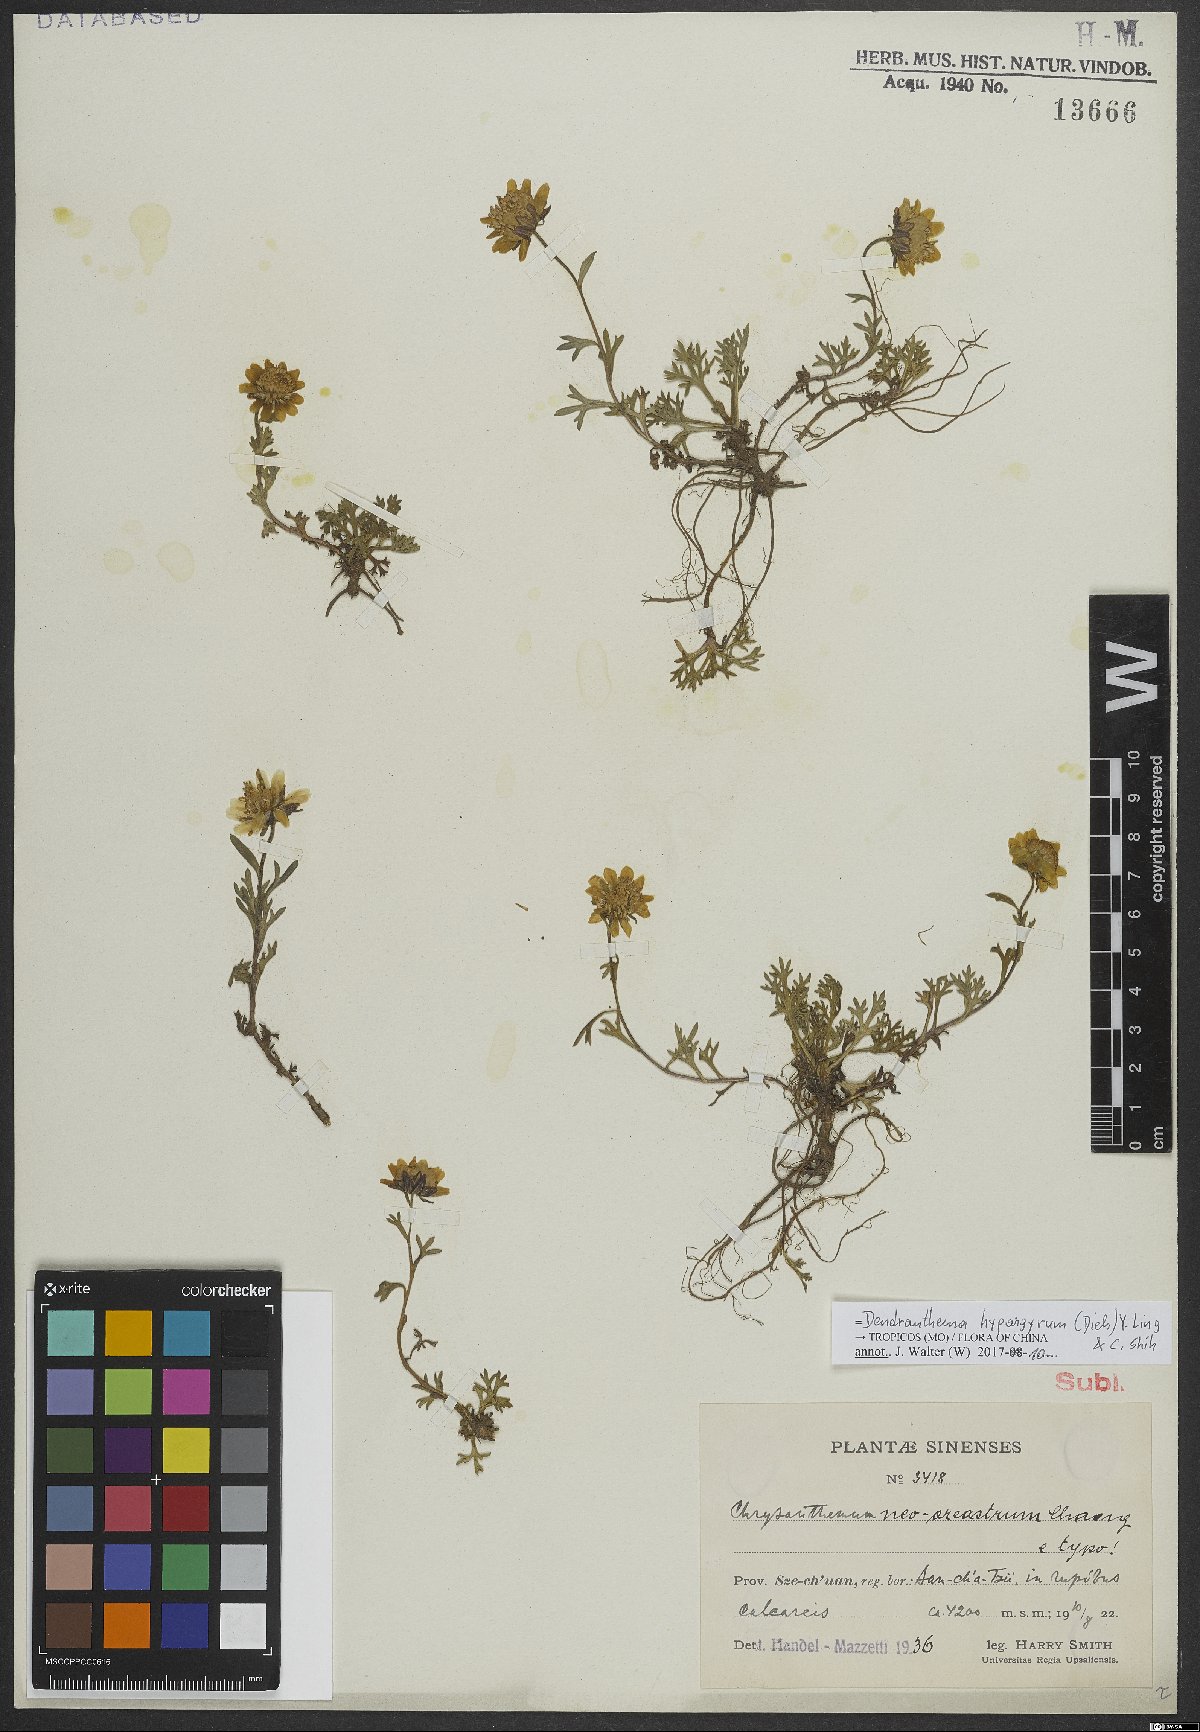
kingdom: Plantae
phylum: Tracheophyta
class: Magnoliopsida
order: Asterales
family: Asteraceae
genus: Chrysanthemum
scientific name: Chrysanthemum hypargyreum
